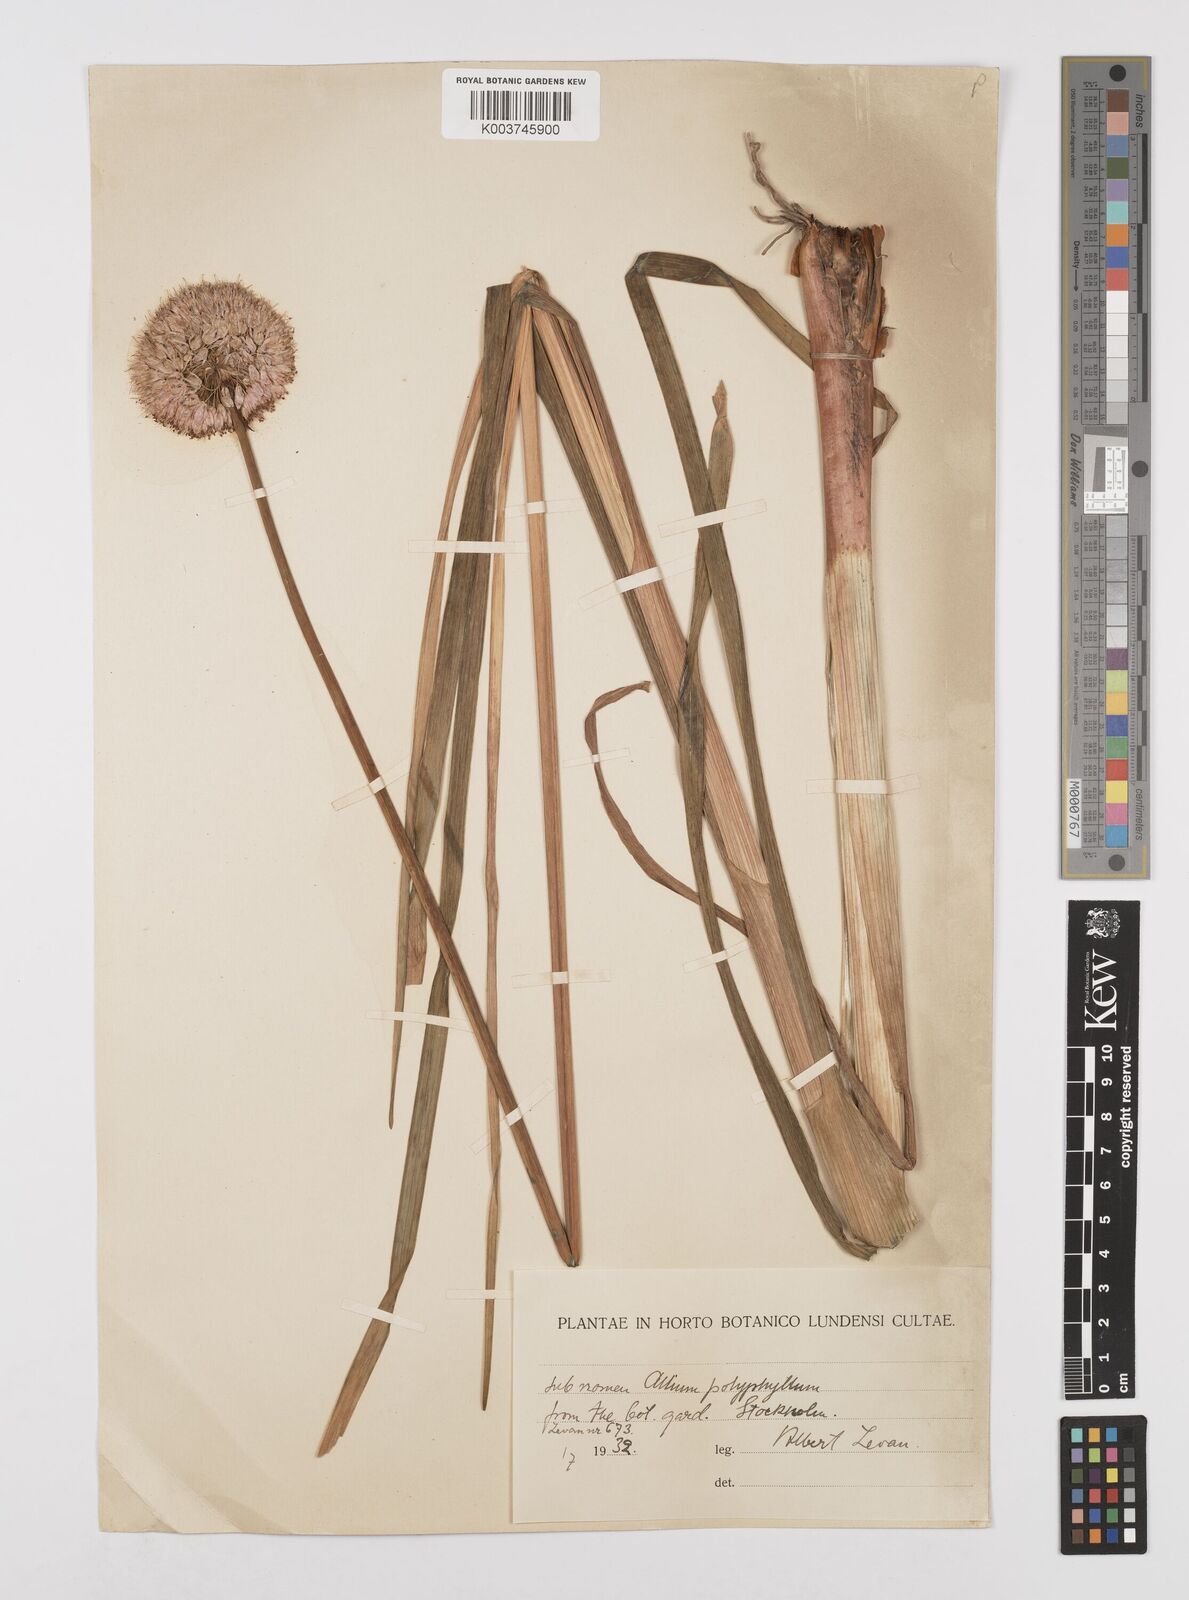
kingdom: Plantae
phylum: Tracheophyta
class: Liliopsida
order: Asparagales
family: Amaryllidaceae
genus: Allium
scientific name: Allium carolinianum
